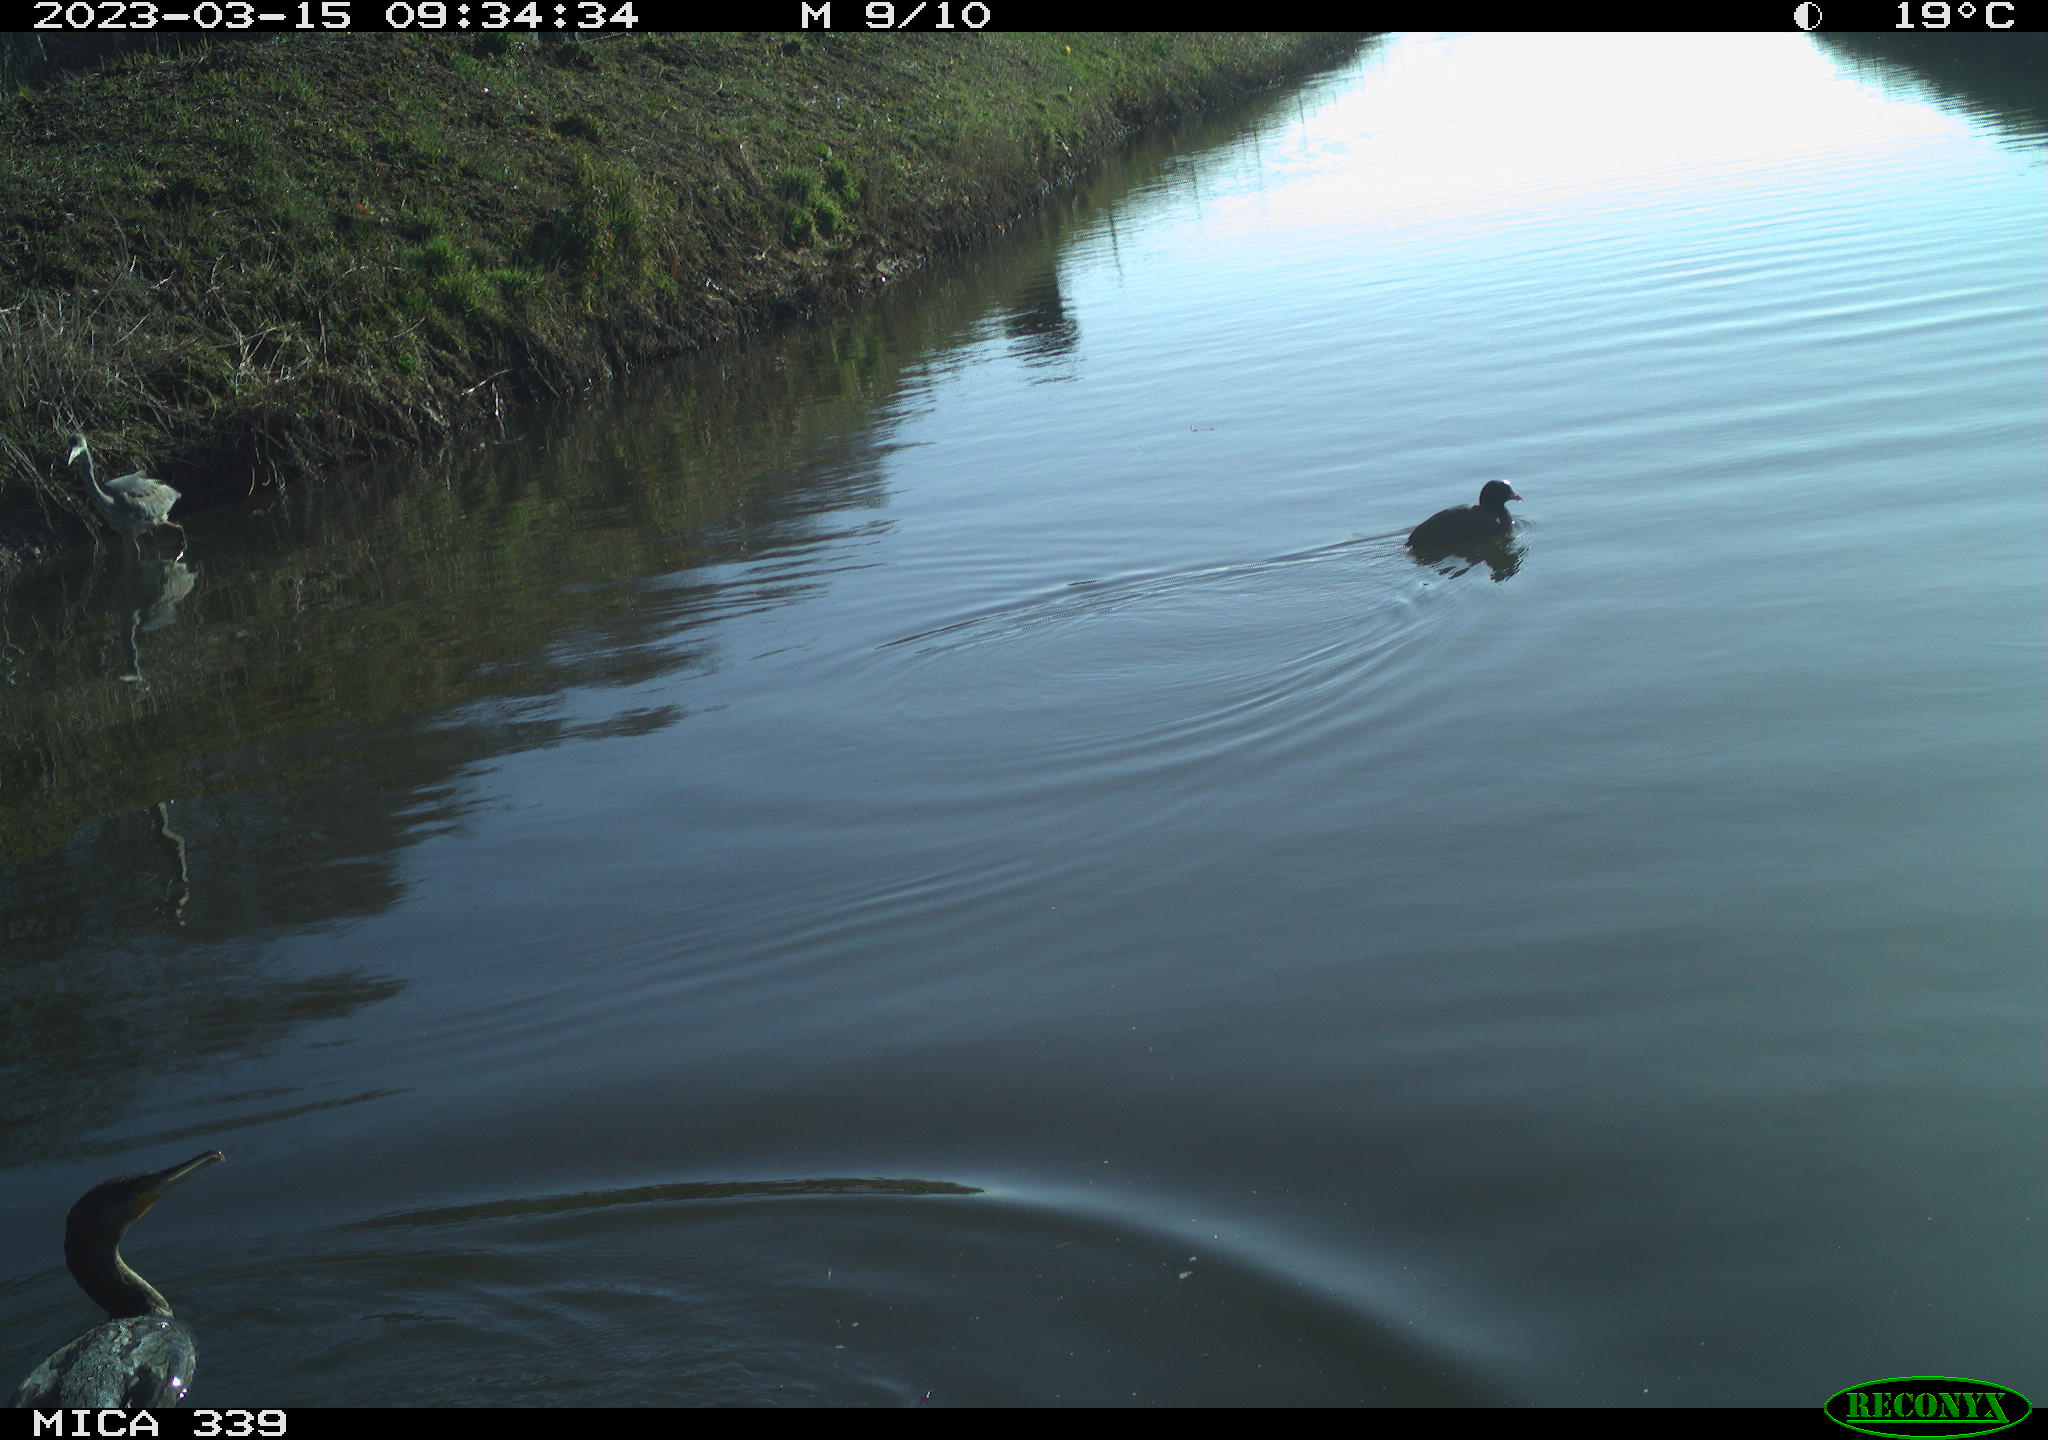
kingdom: Animalia
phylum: Chordata
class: Aves
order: Pelecaniformes
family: Ardeidae
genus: Ardea
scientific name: Ardea cinerea
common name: Grey heron
